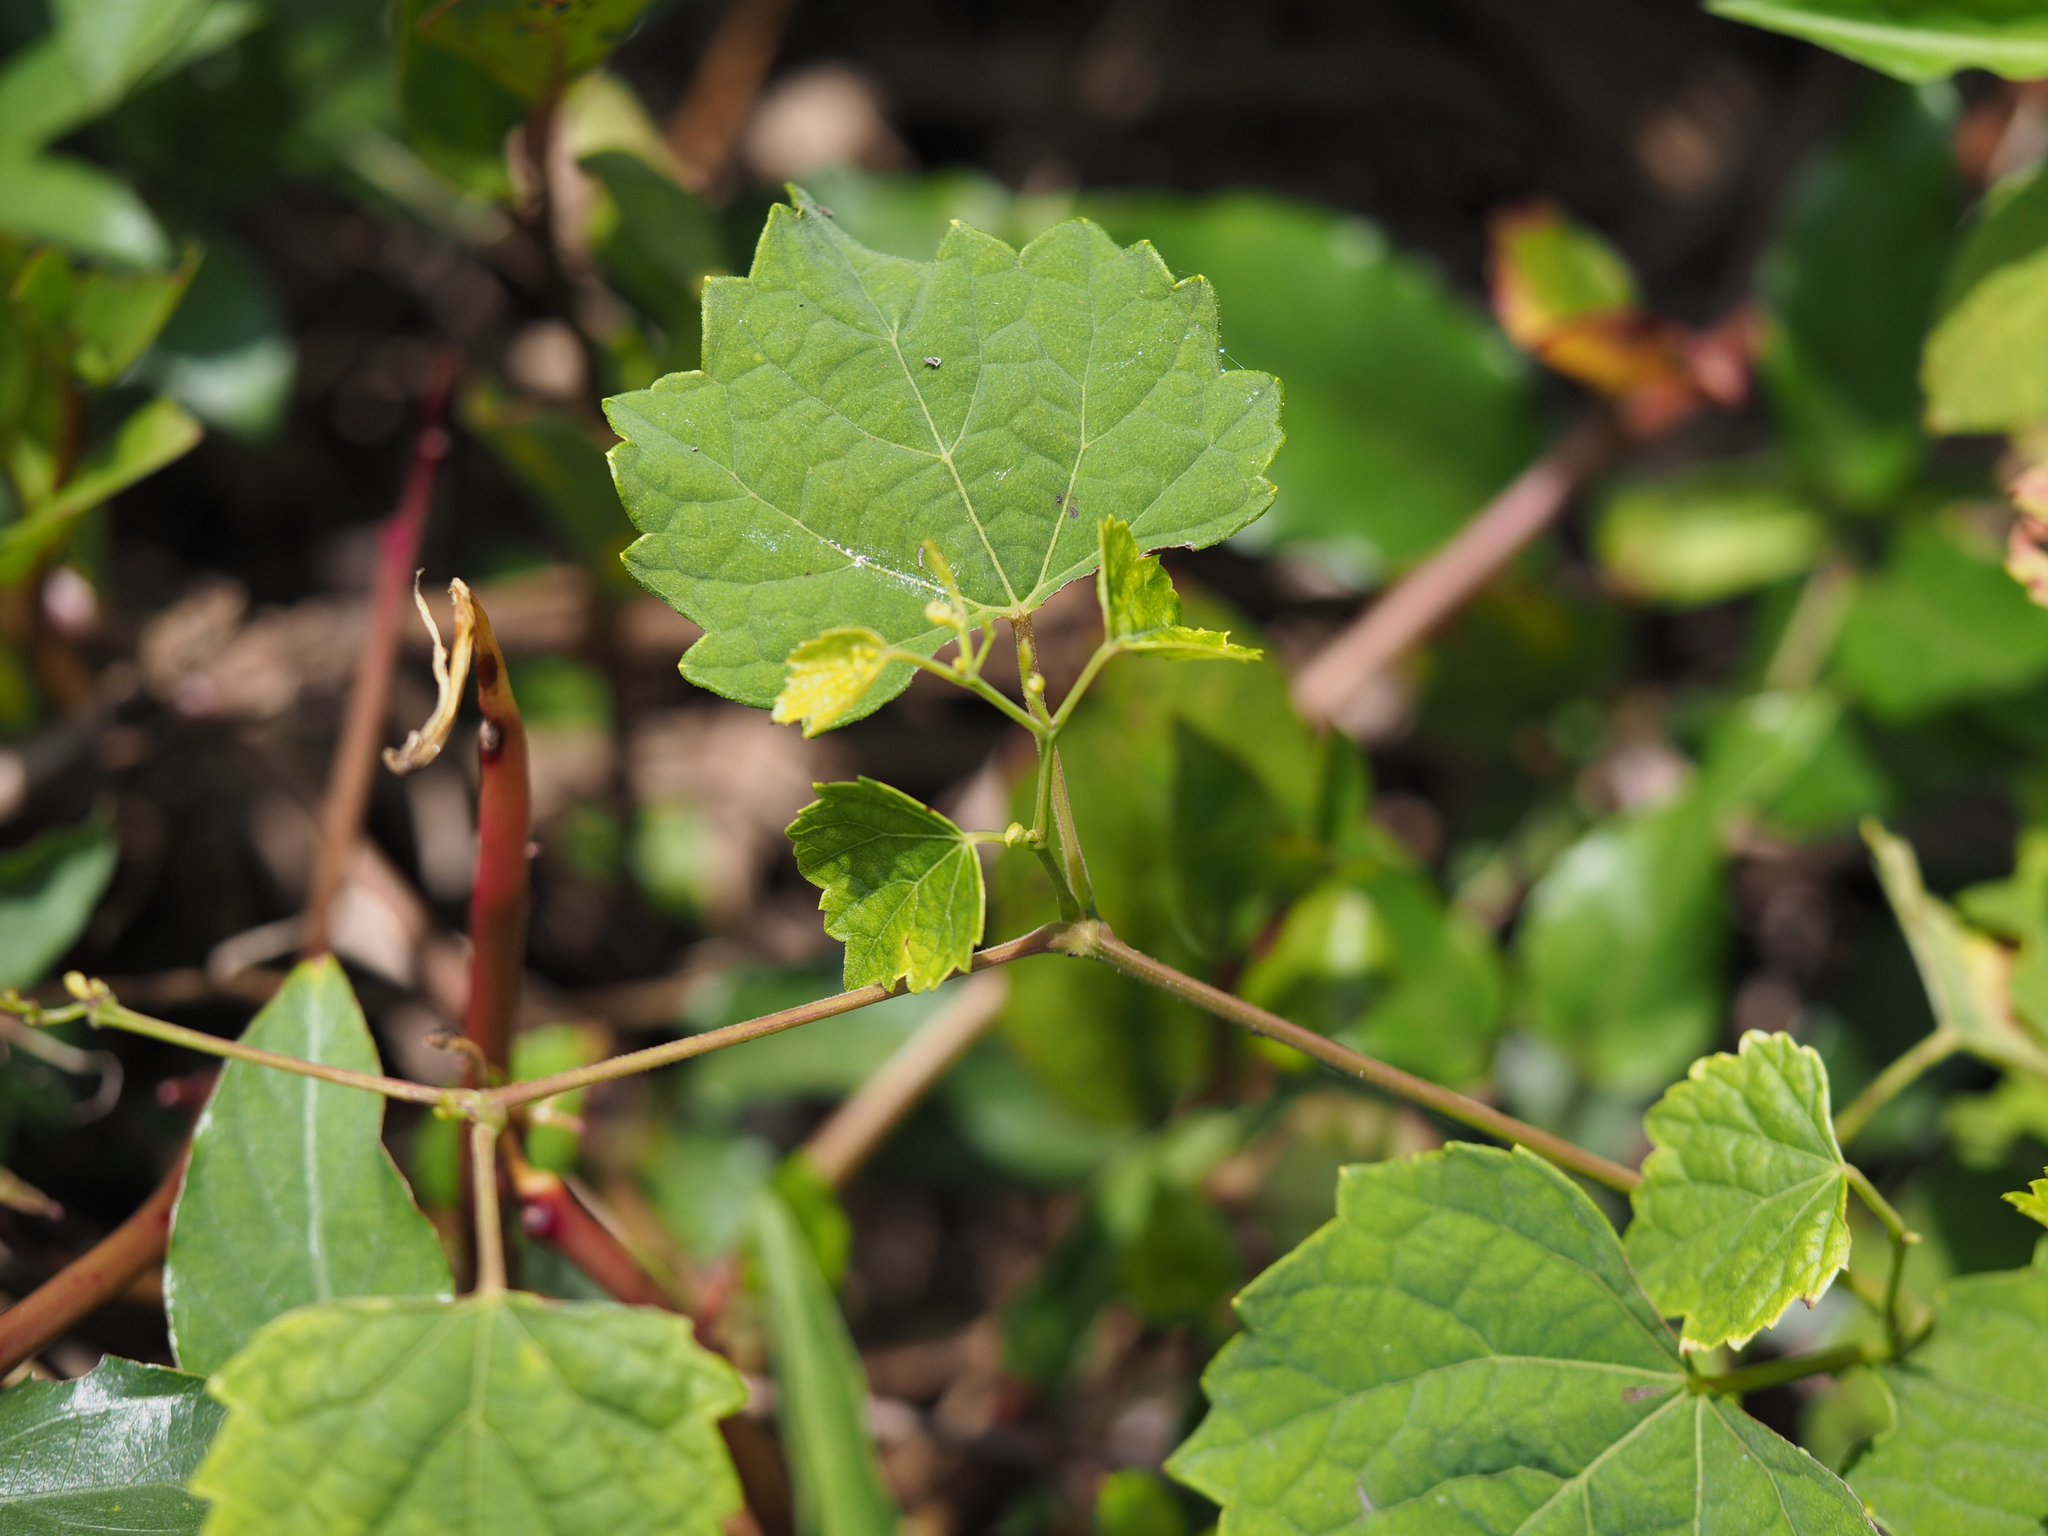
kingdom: Plantae
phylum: Tracheophyta
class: Magnoliopsida
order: Vitales
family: Vitaceae
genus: Ampelopsis
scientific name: Ampelopsis glandulosa
